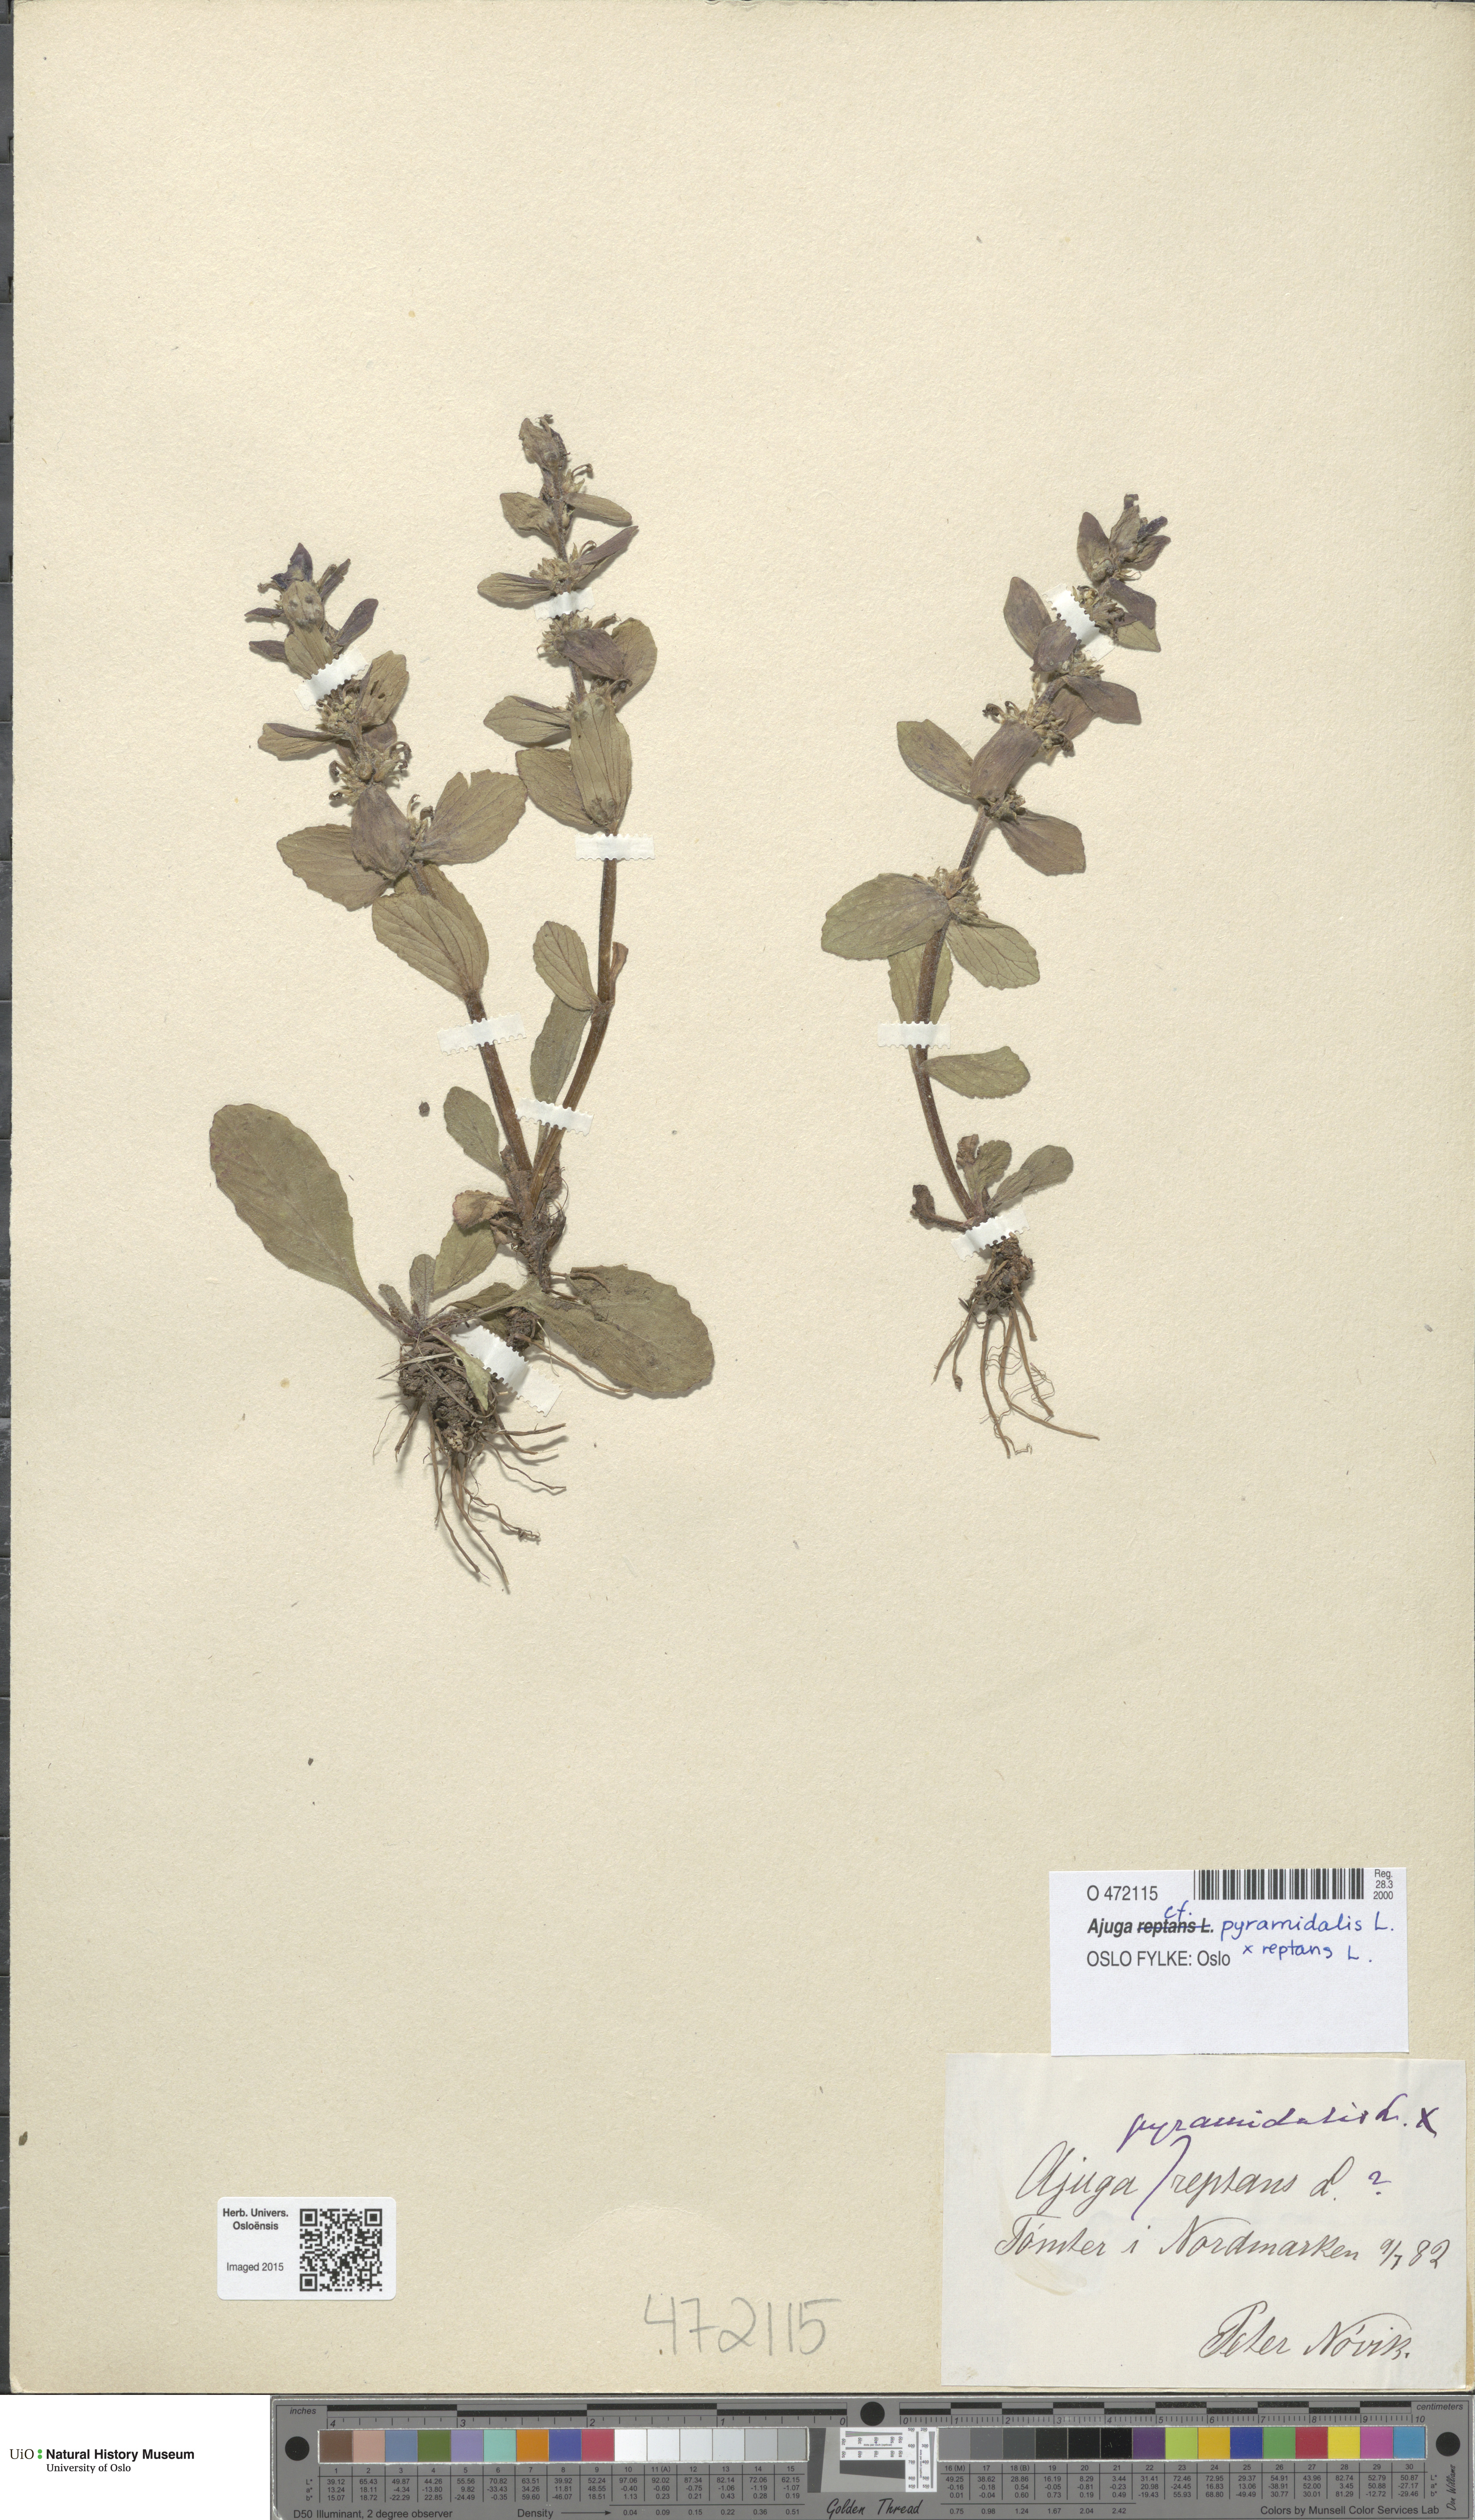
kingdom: Plantae
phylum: Tracheophyta
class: Magnoliopsida
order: Lamiales
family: Lamiaceae
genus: Ajuga
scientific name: Ajuga
